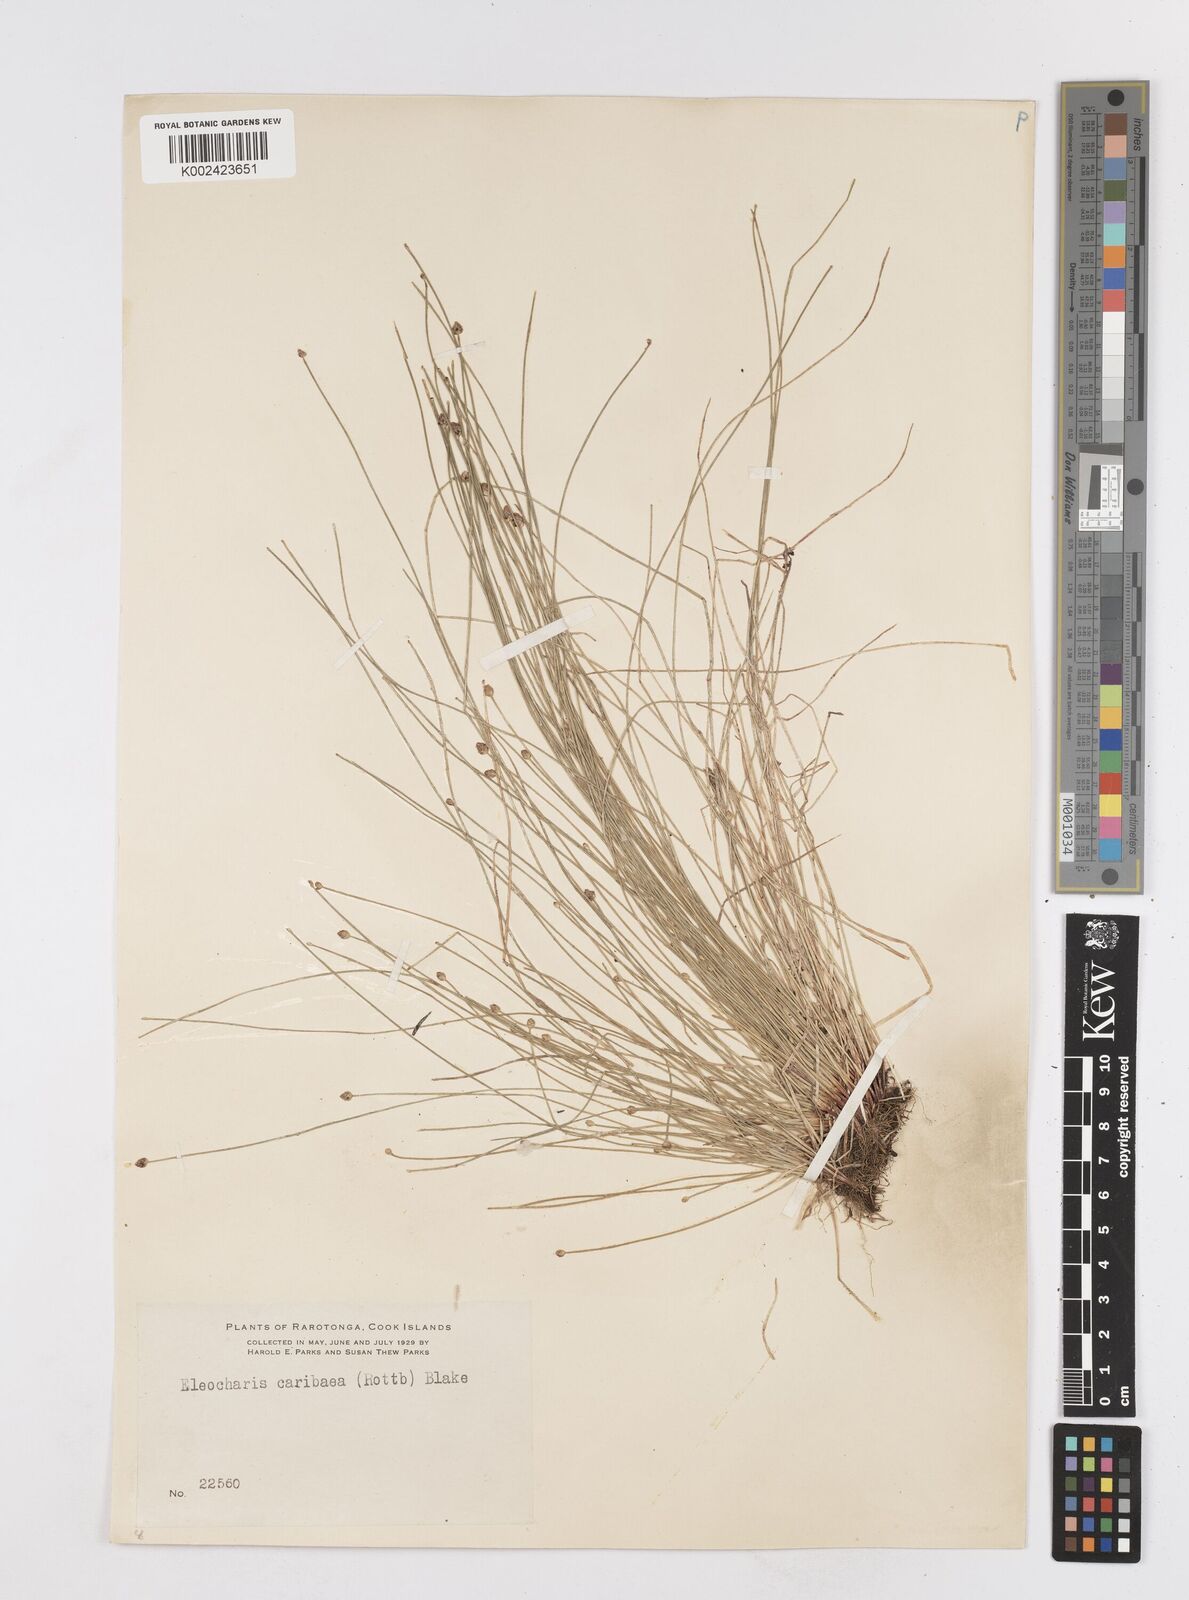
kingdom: Plantae
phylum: Tracheophyta
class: Liliopsida
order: Poales
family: Cyperaceae
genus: Eleocharis
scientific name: Eleocharis geniculata
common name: Canada spikesedge
